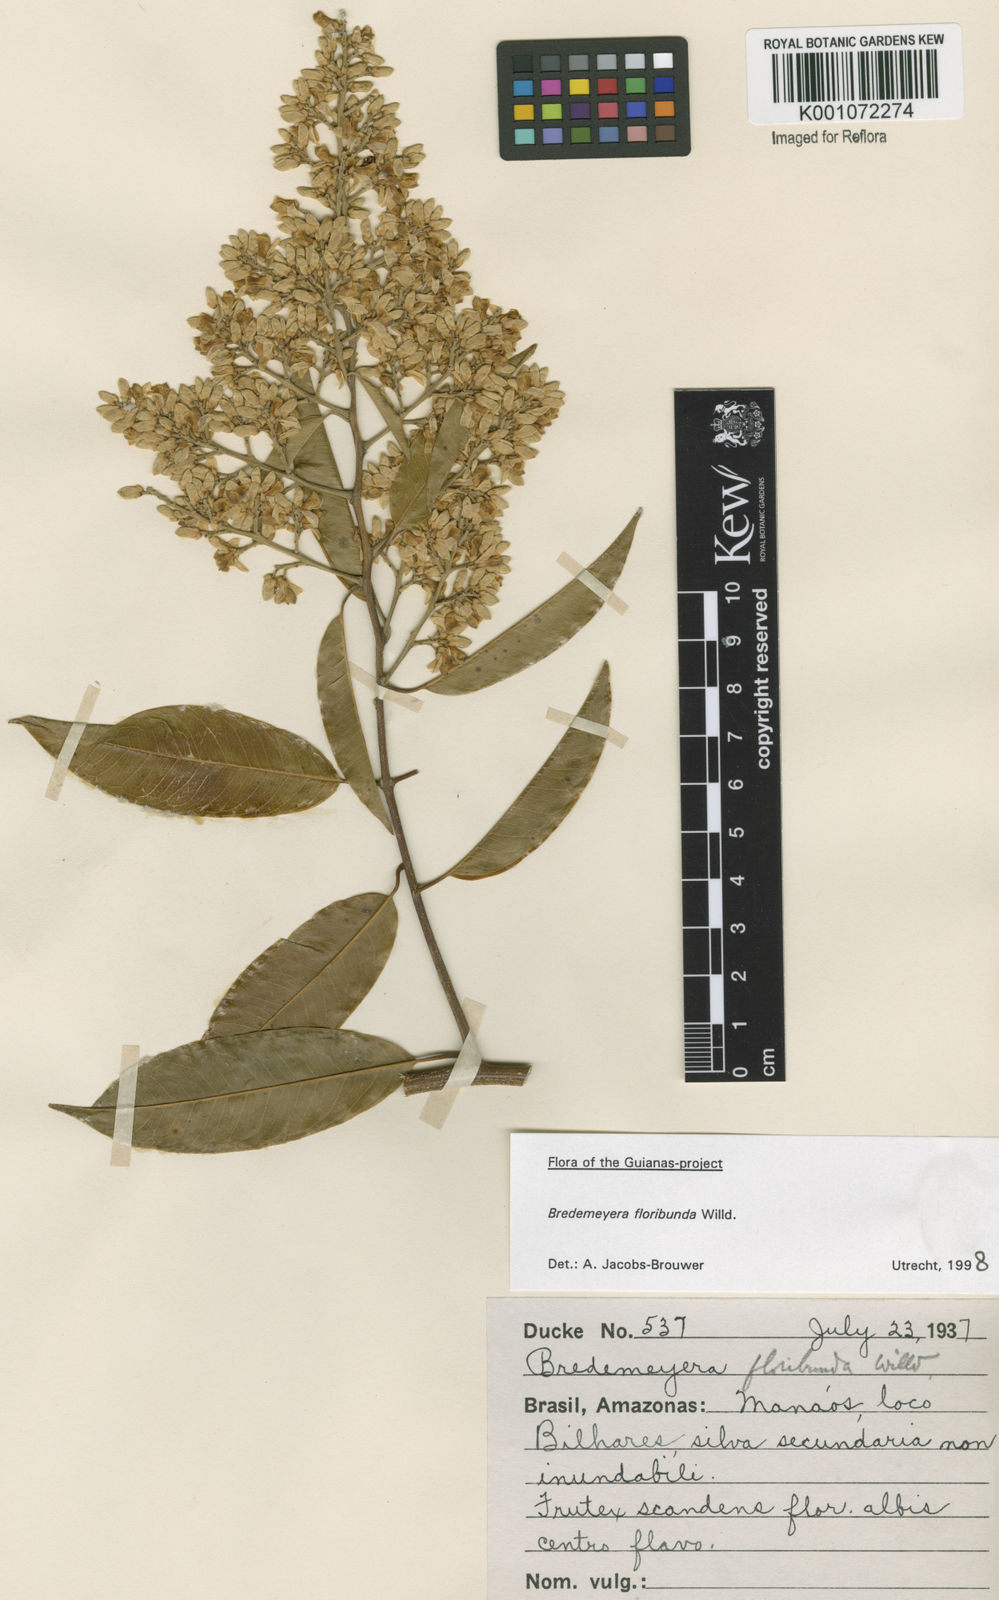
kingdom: Plantae
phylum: Tracheophyta
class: Magnoliopsida
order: Fabales
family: Polygalaceae
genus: Bredemeyera
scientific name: Bredemeyera floribunda
